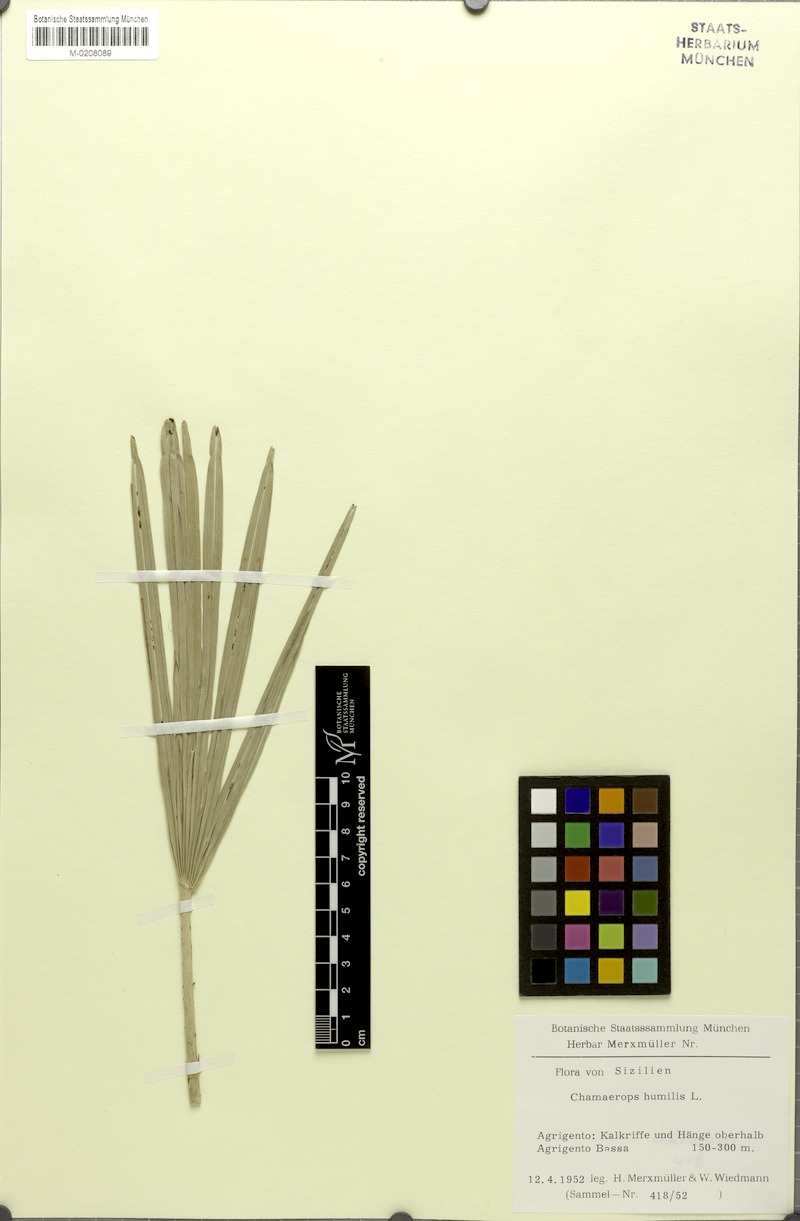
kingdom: Plantae
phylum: Tracheophyta
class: Liliopsida
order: Arecales
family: Arecaceae
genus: Chamaerops
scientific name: Chamaerops humilis
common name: Dwarf fan palm
